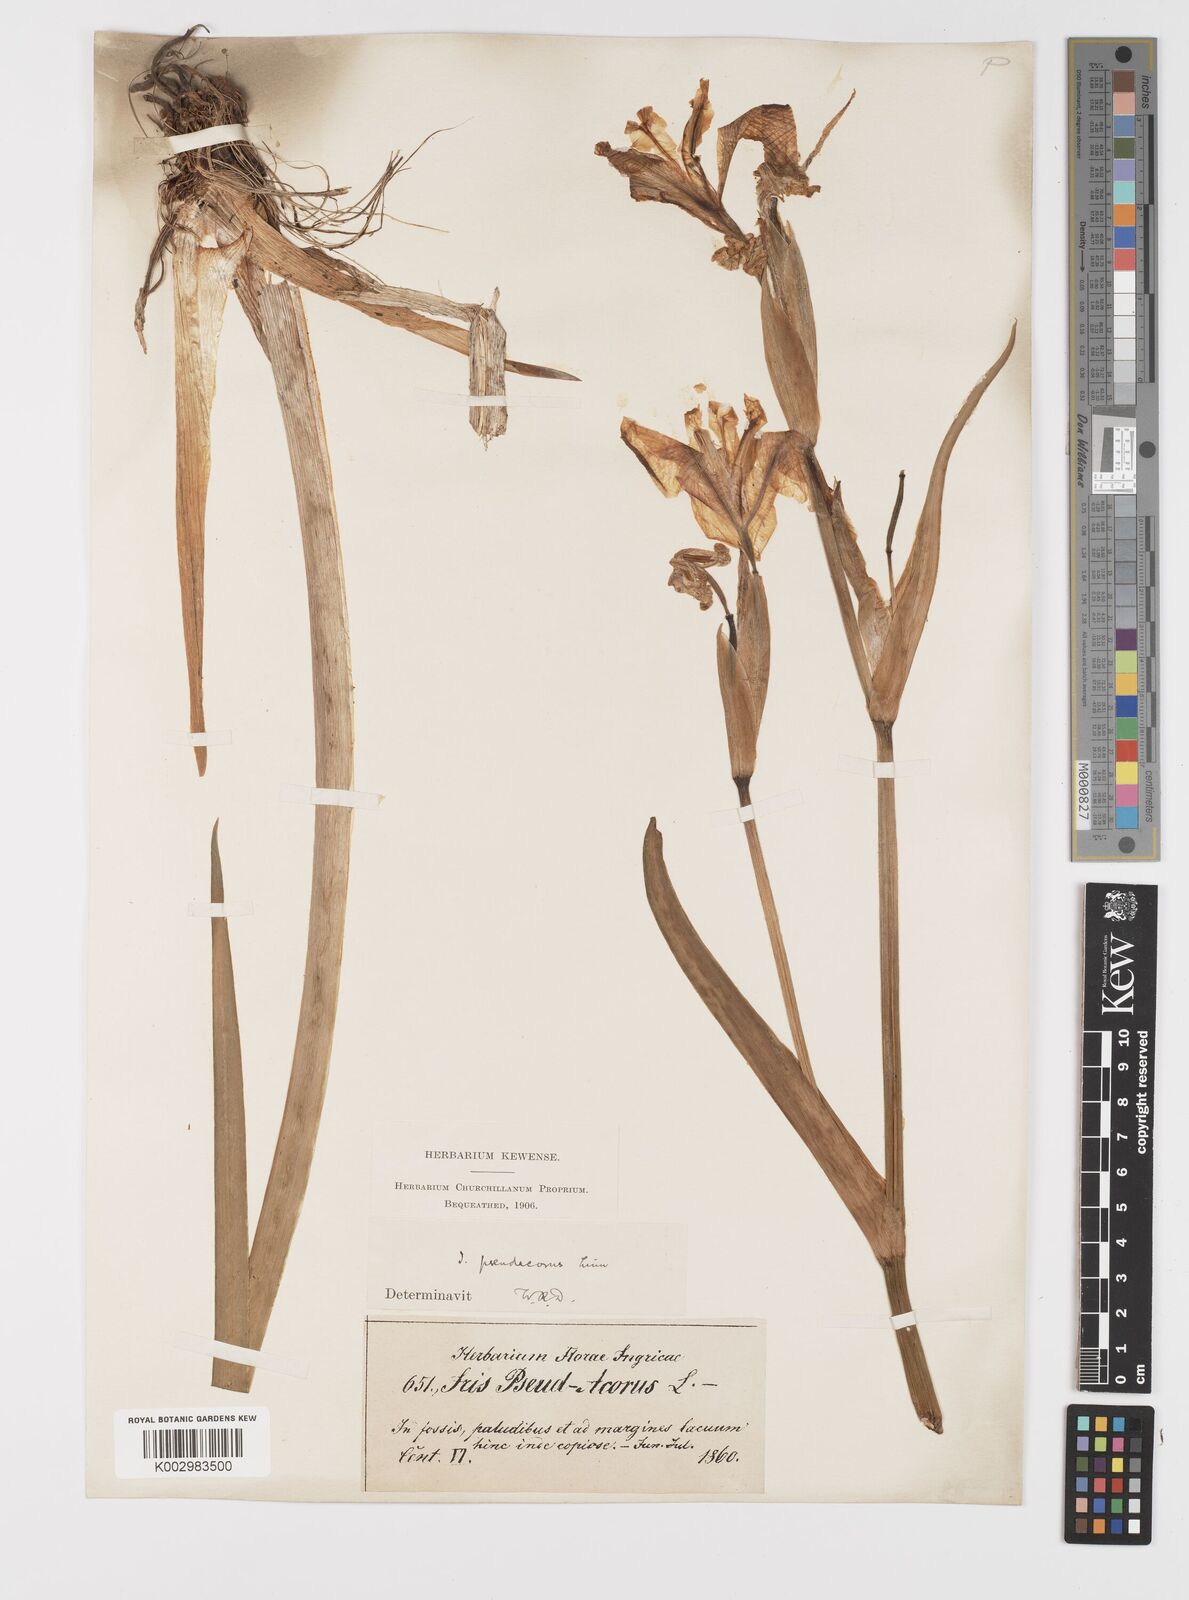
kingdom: Plantae
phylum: Tracheophyta
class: Liliopsida
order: Asparagales
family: Iridaceae
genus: Iris
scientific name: Iris pseudacorus
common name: Yellow flag
